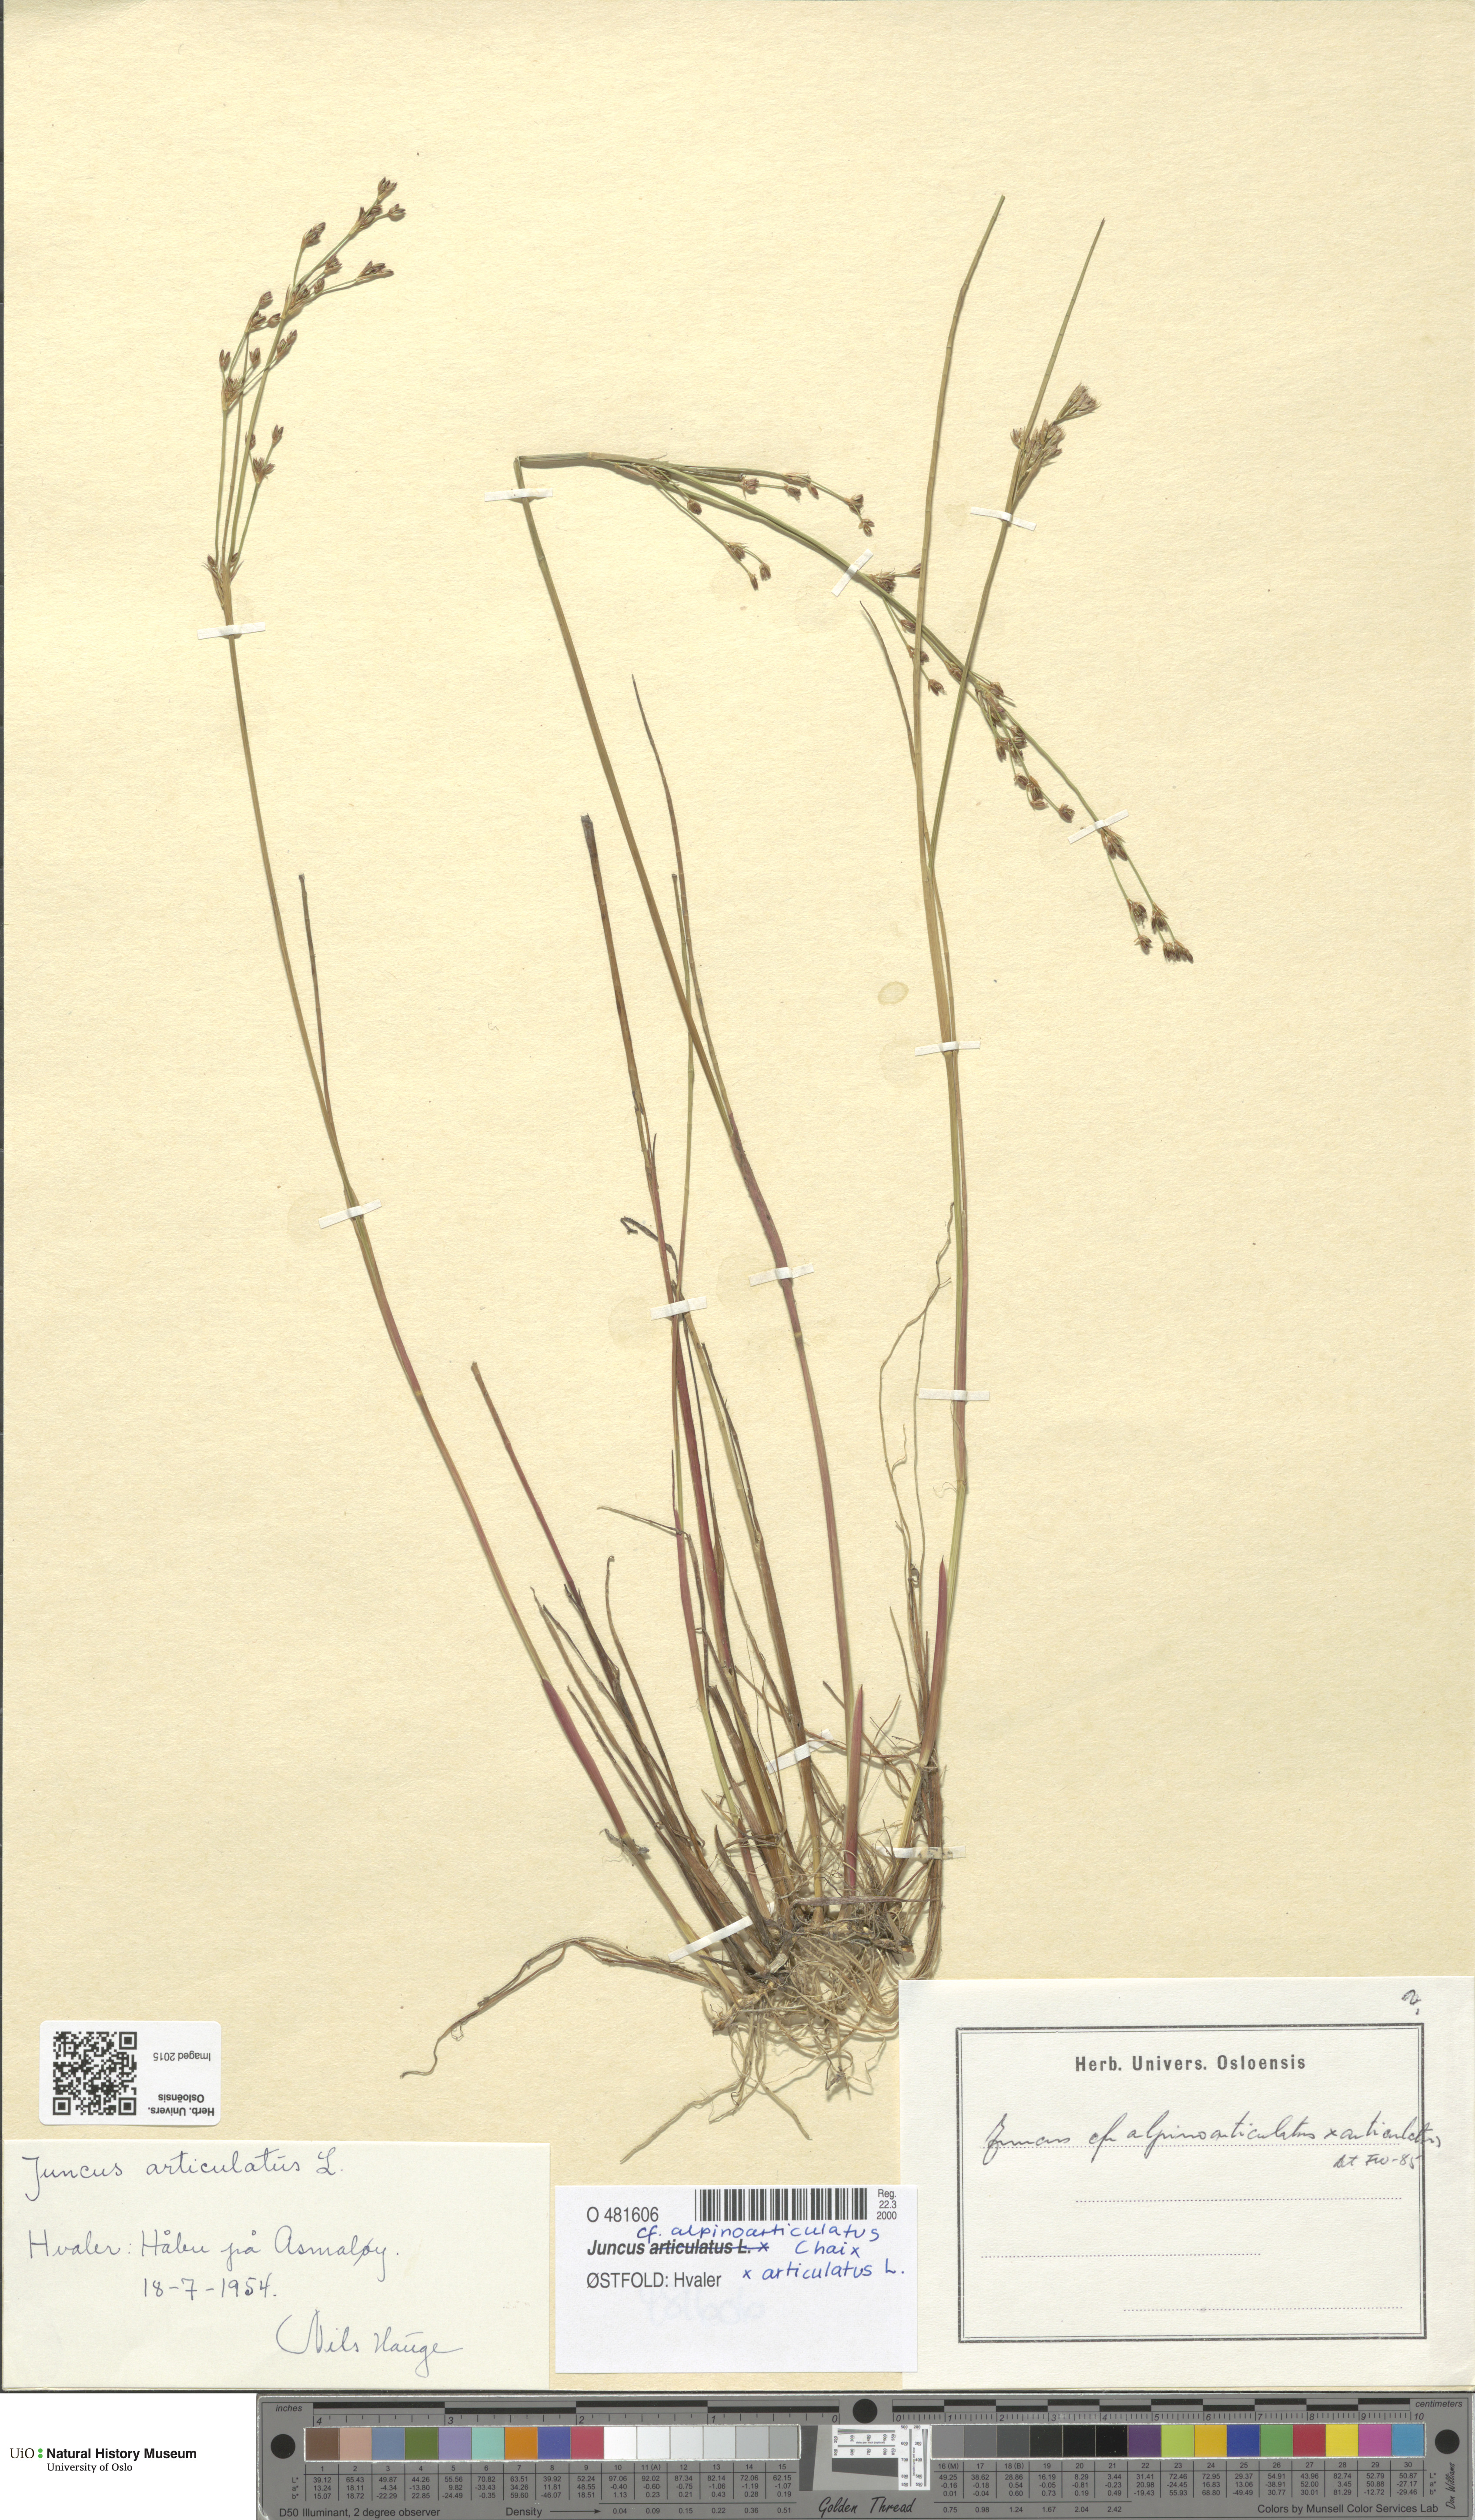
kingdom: Plantae
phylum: Tracheophyta
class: Liliopsida
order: Poales
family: Juncaceae
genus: Juncus
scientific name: Juncus
